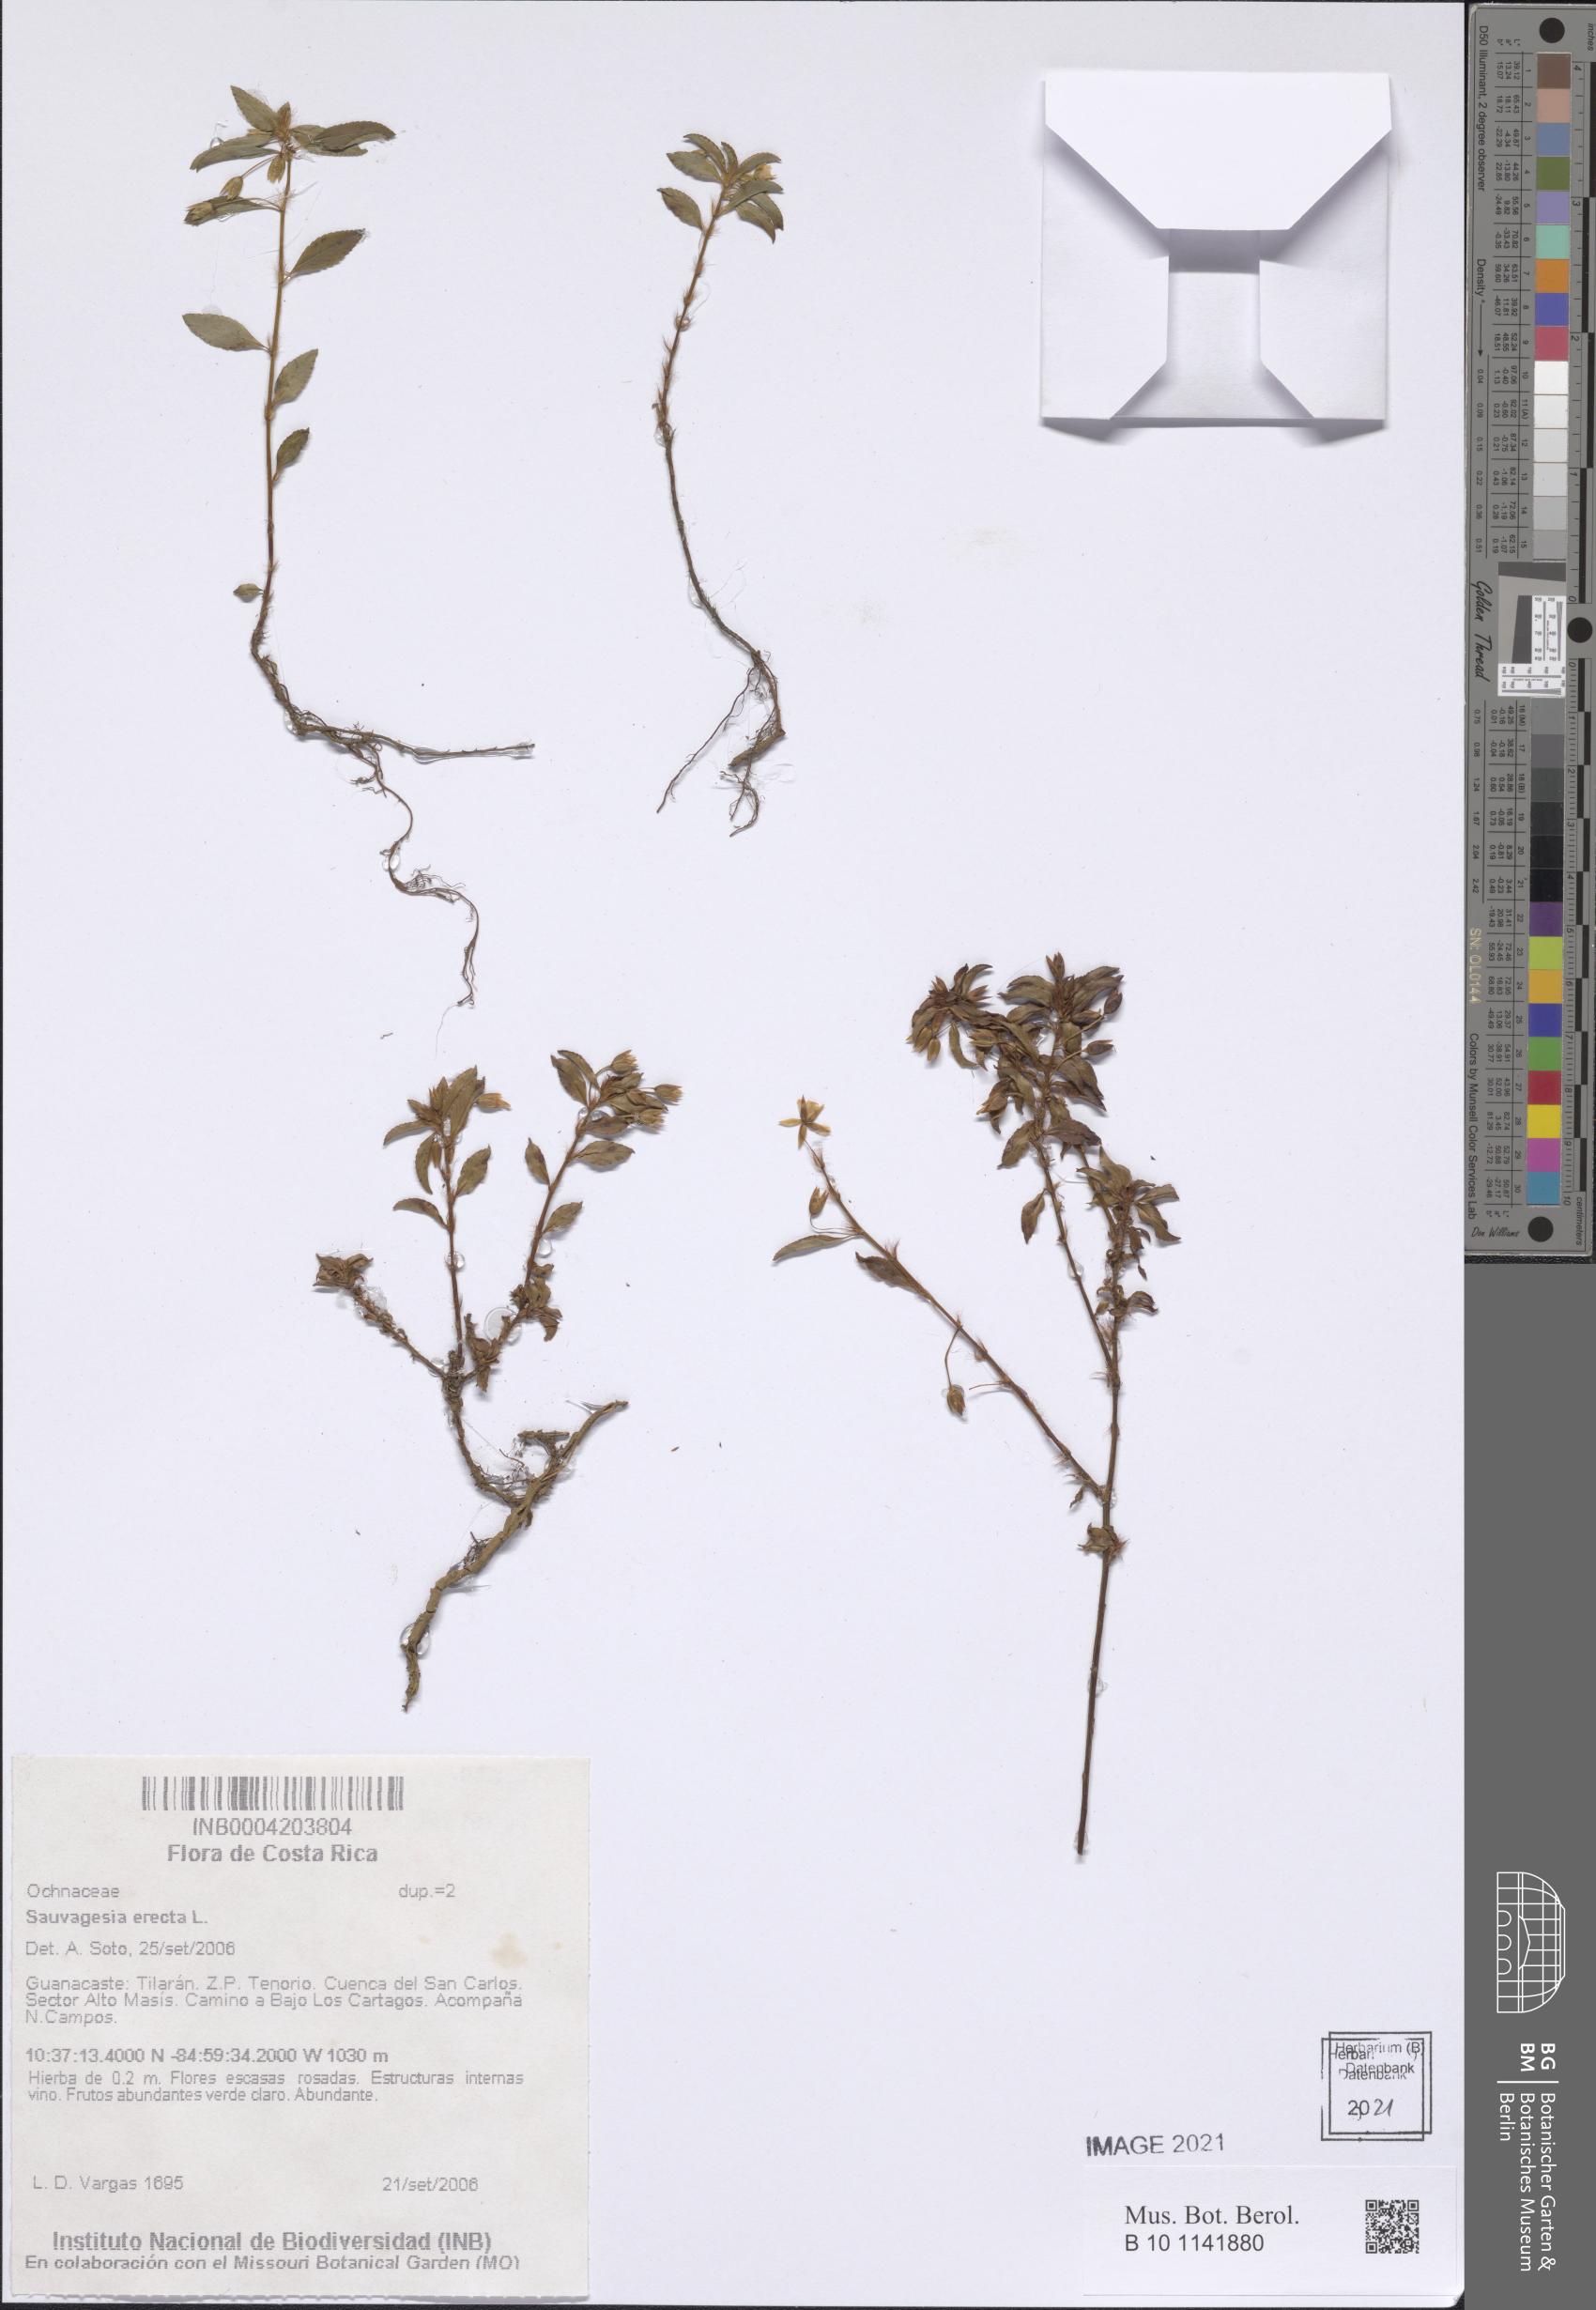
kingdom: Plantae
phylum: Tracheophyta
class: Magnoliopsida
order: Malpighiales
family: Ochnaceae
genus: Sauvagesia
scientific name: Sauvagesia erecta
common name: Creole tea
